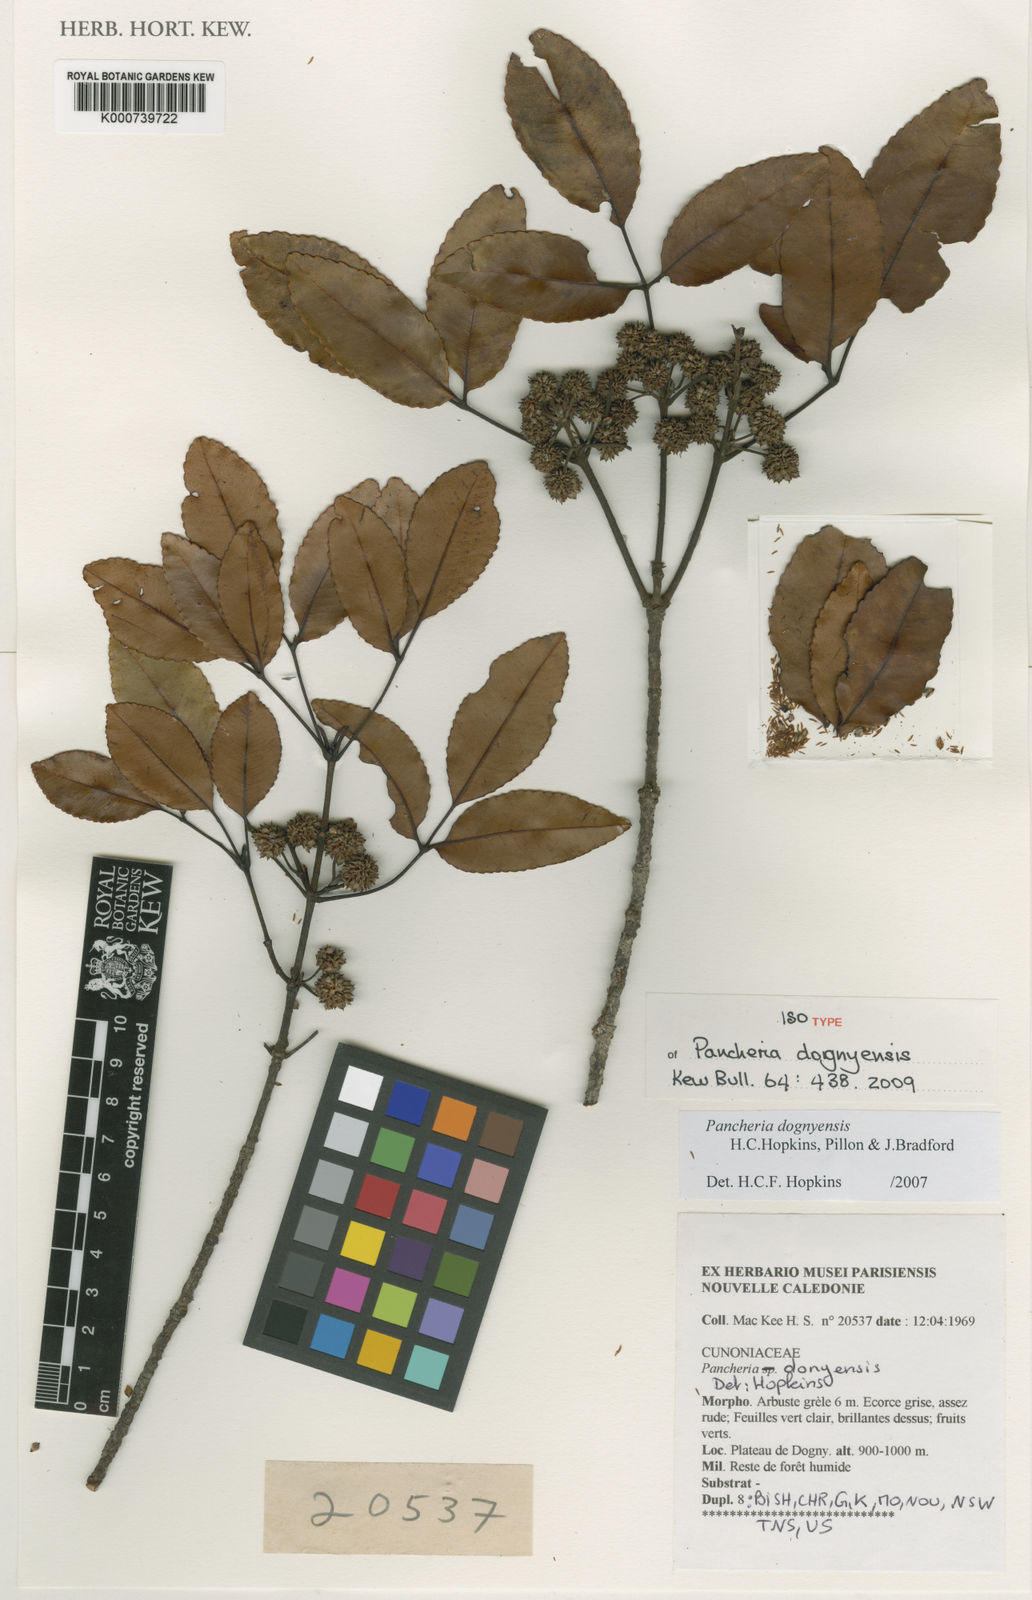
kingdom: Plantae
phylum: Tracheophyta
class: Magnoliopsida
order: Oxalidales
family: Cunoniaceae
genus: Pancheria
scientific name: Pancheria dognyensis
